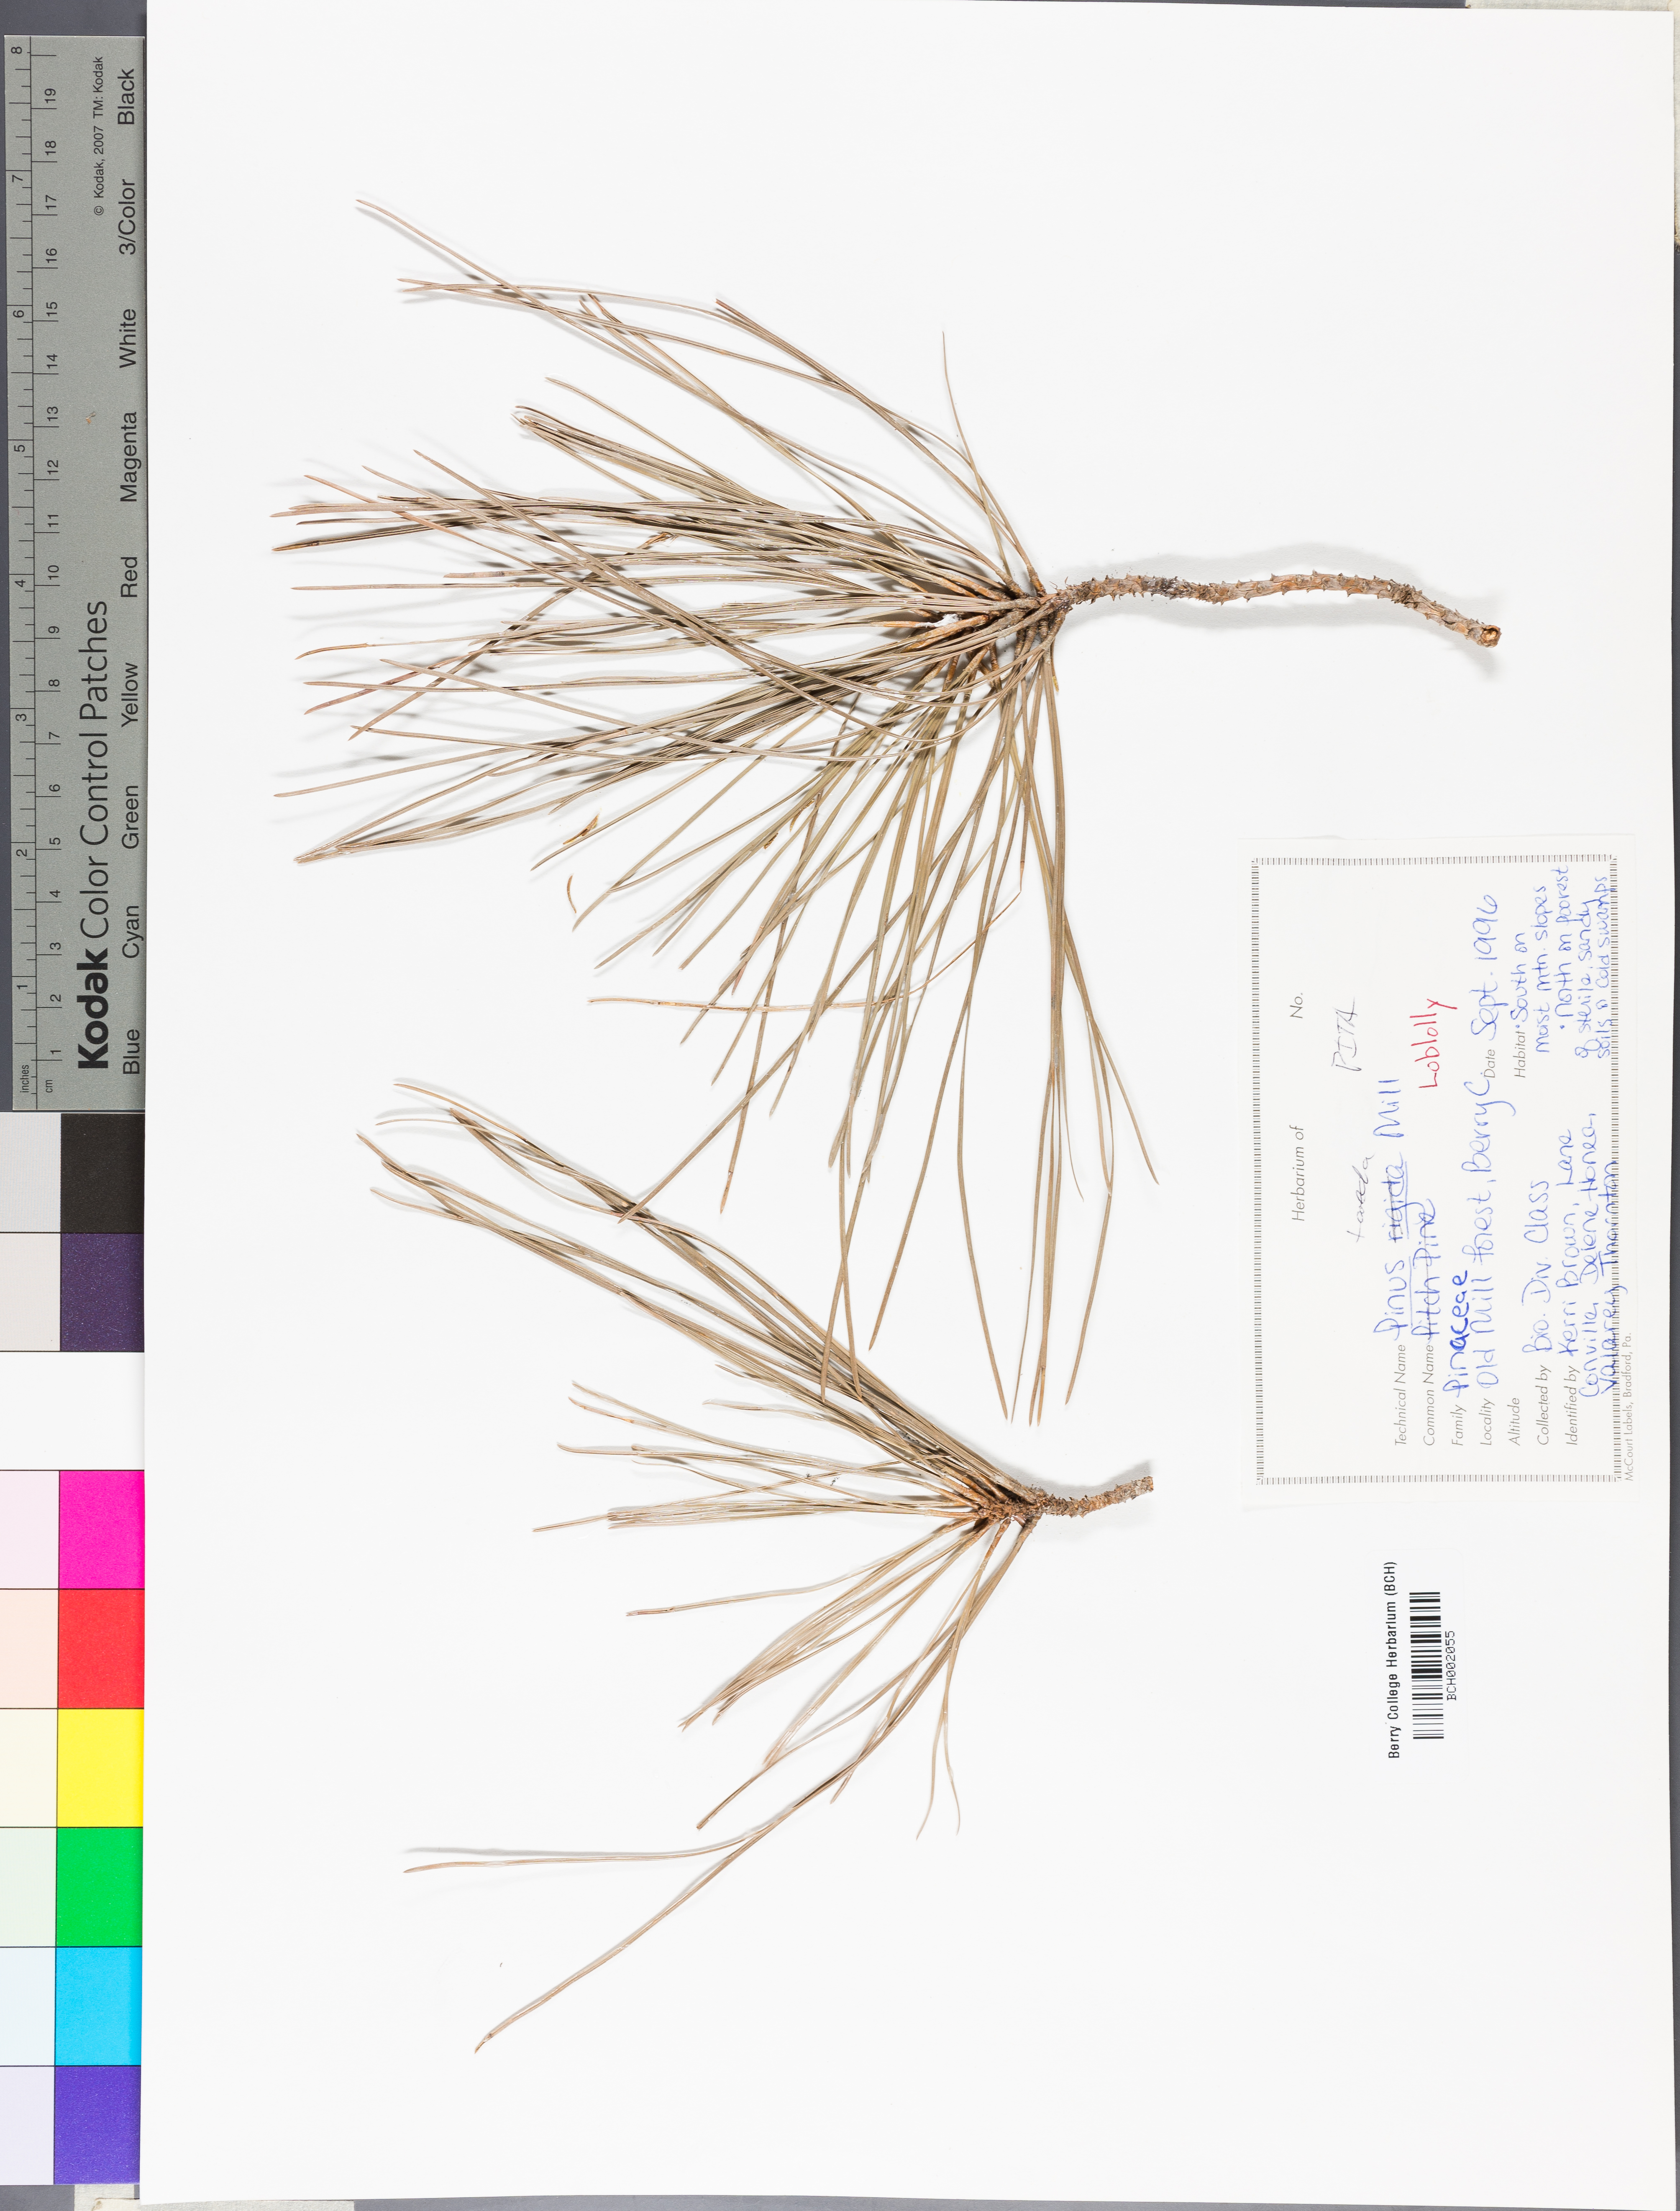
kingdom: Plantae
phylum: Tracheophyta
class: Pinopsida
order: Pinales
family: Pinaceae
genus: Pinus
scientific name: Pinus taeda
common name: Loblolly pine
